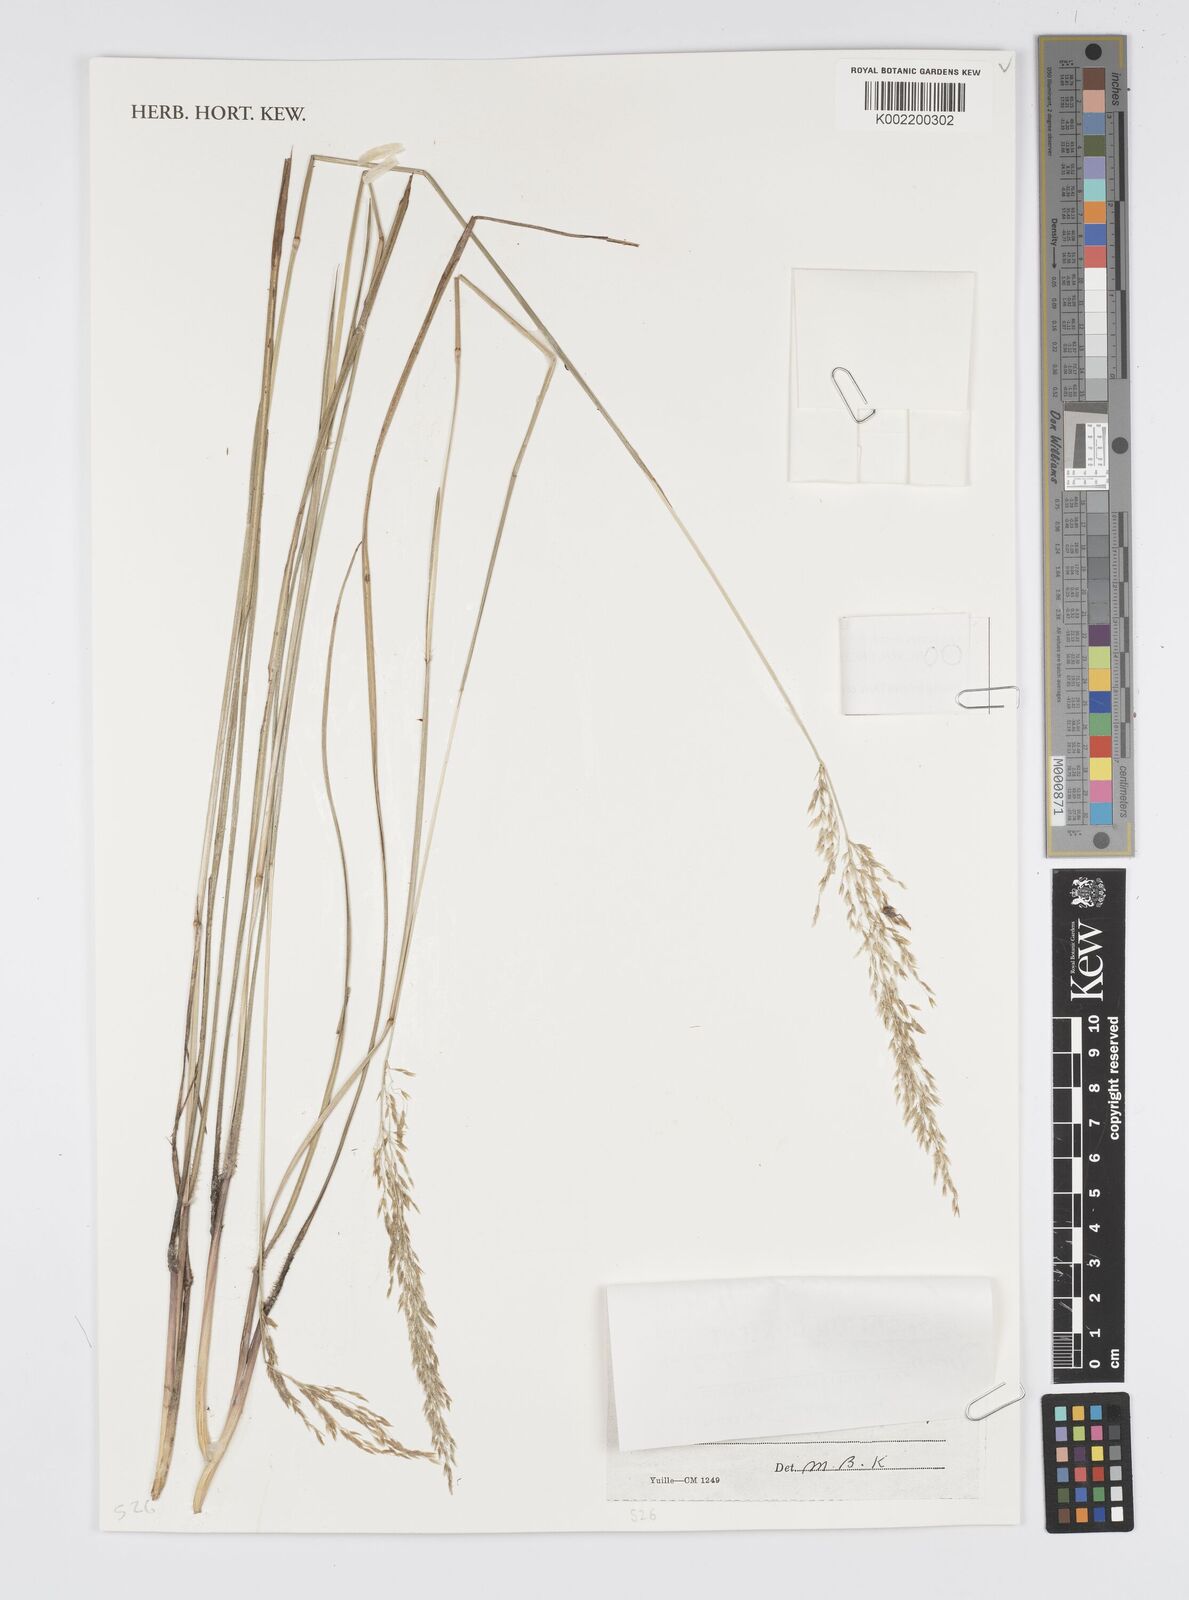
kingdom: Plantae
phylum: Tracheophyta
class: Liliopsida
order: Poales
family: Poaceae
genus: Anthenantia
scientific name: Anthenantia lanata
